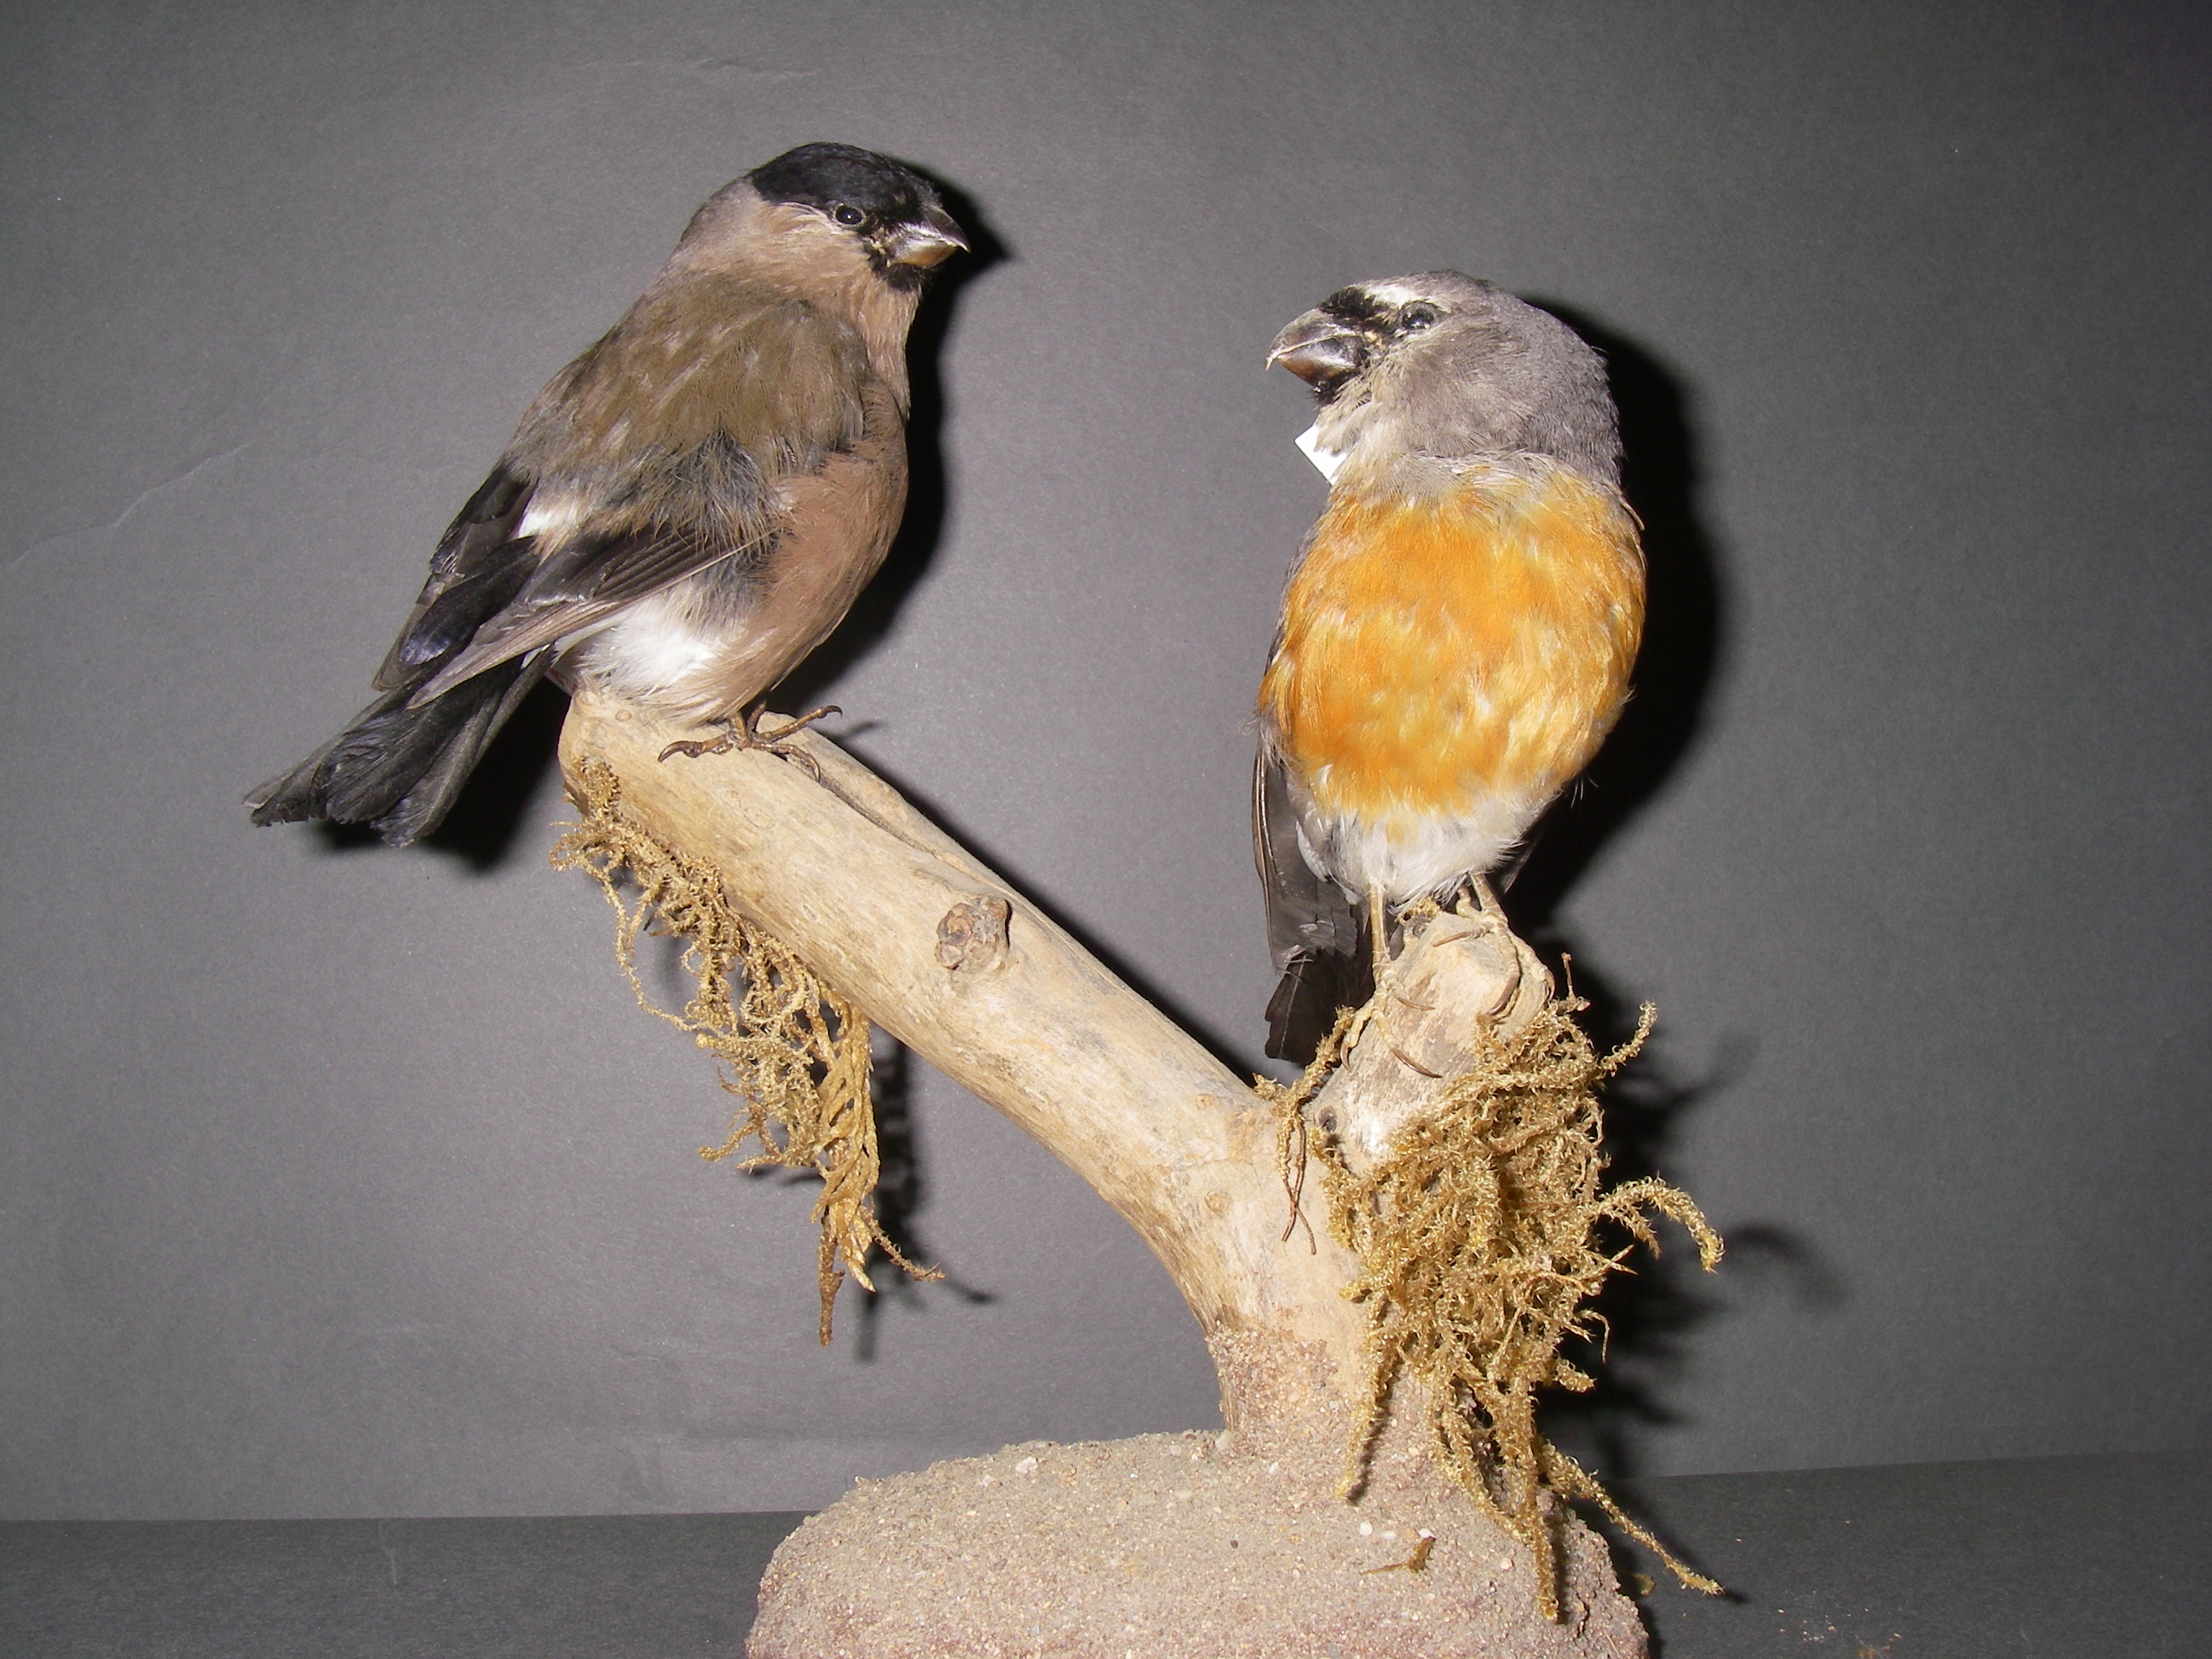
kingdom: Animalia
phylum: Chordata
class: Aves
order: Passeriformes
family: Fringillidae
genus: Pyrrhula
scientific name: Pyrrhula erythaca
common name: Grey-headed bullfinch
